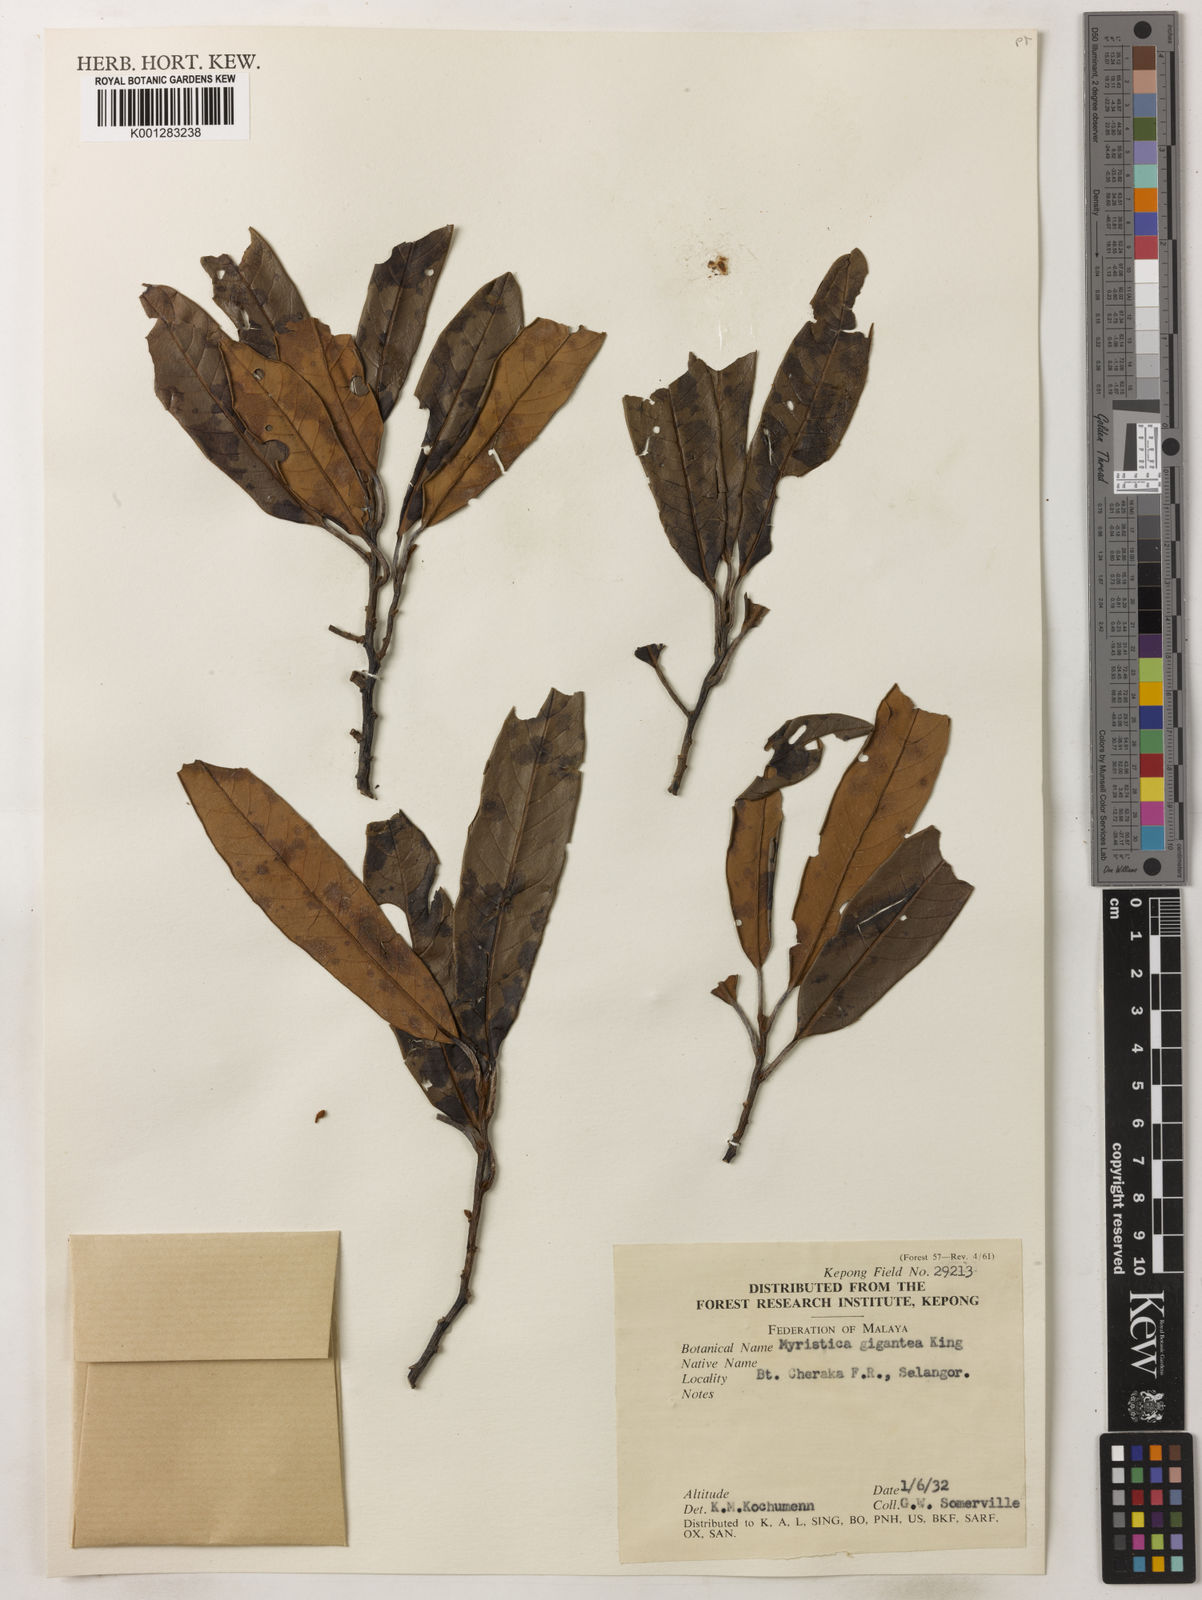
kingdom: Plantae
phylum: Tracheophyta
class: Magnoliopsida
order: Magnoliales
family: Myristicaceae
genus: Myristica
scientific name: Myristica gigantea
